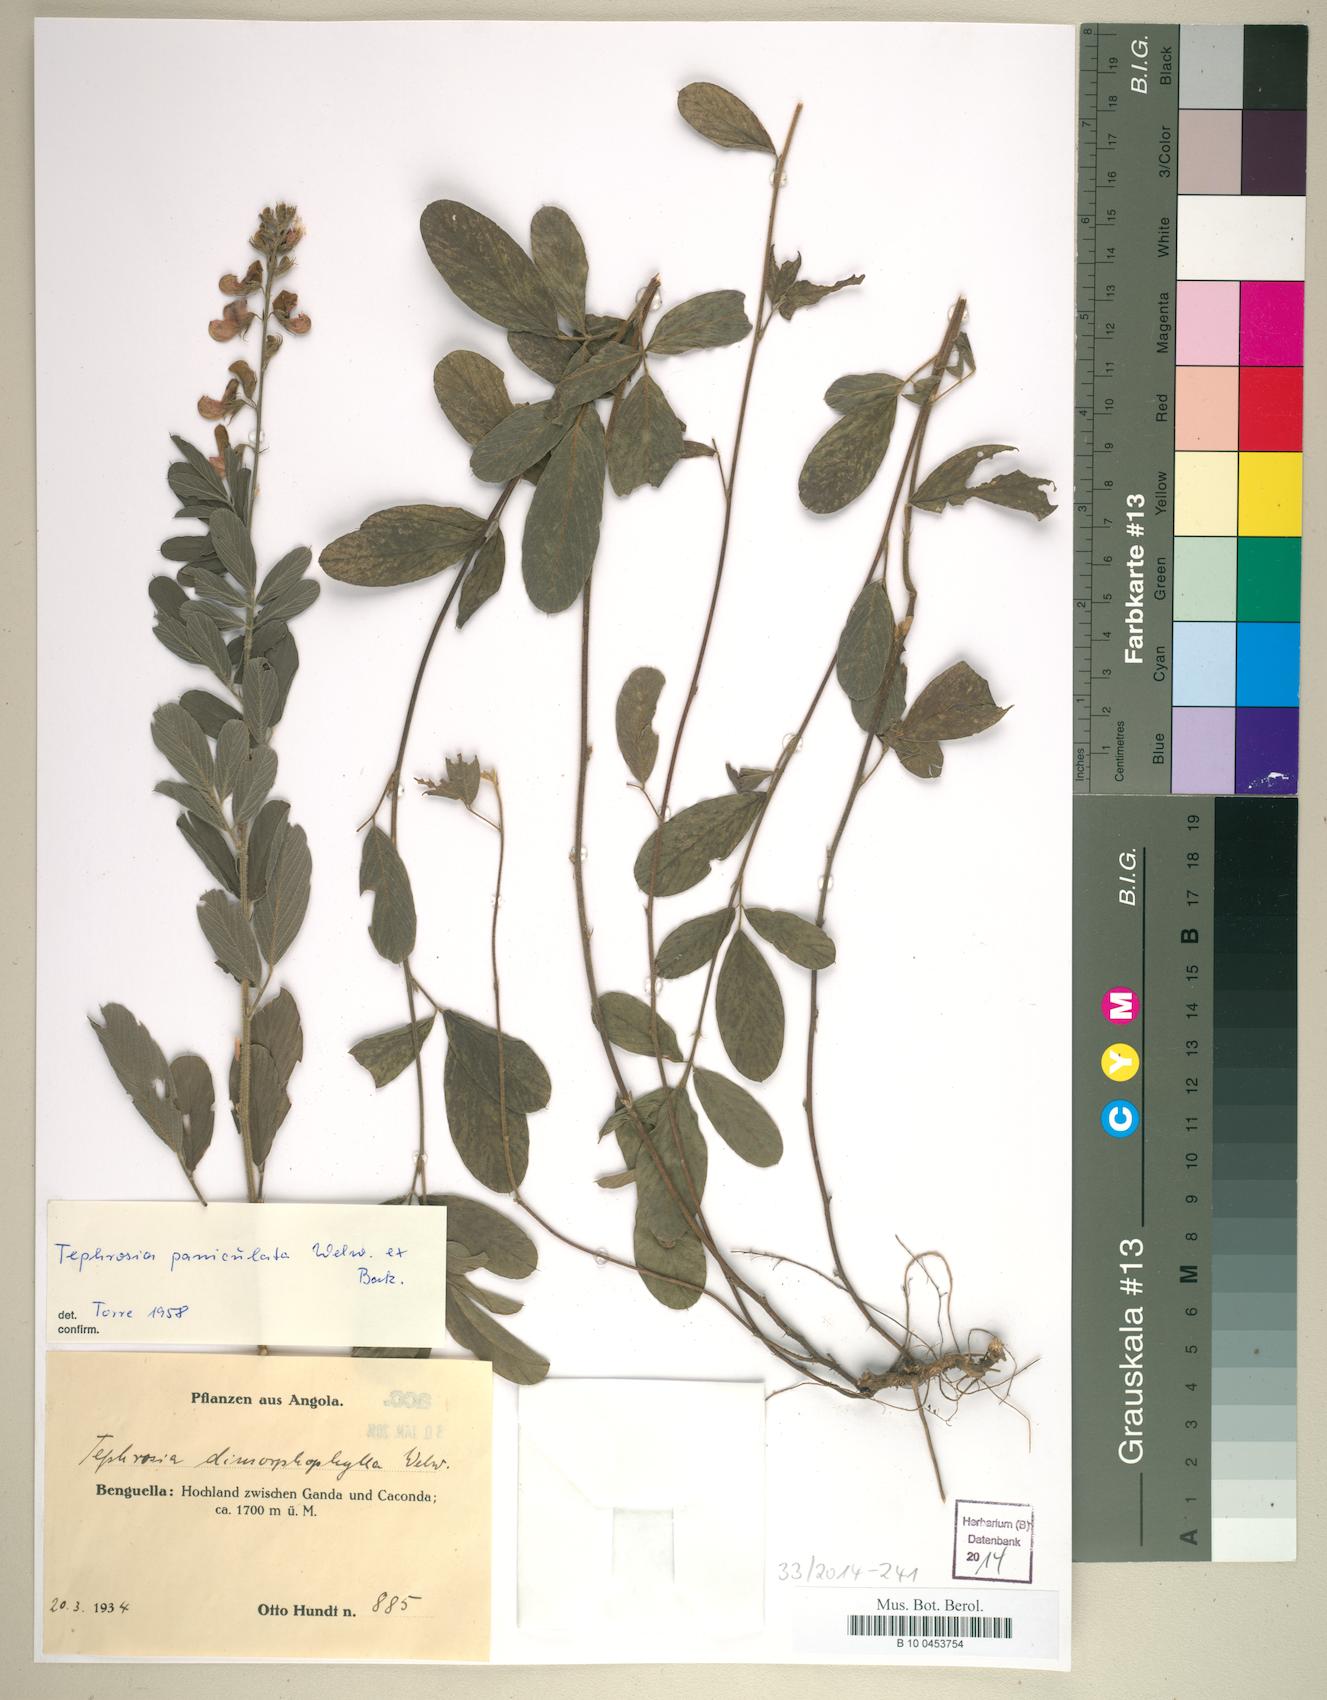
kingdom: Plantae
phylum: Tracheophyta
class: Magnoliopsida
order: Fabales
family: Fabaceae
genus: Tephrosia
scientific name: Tephrosia paniculata
